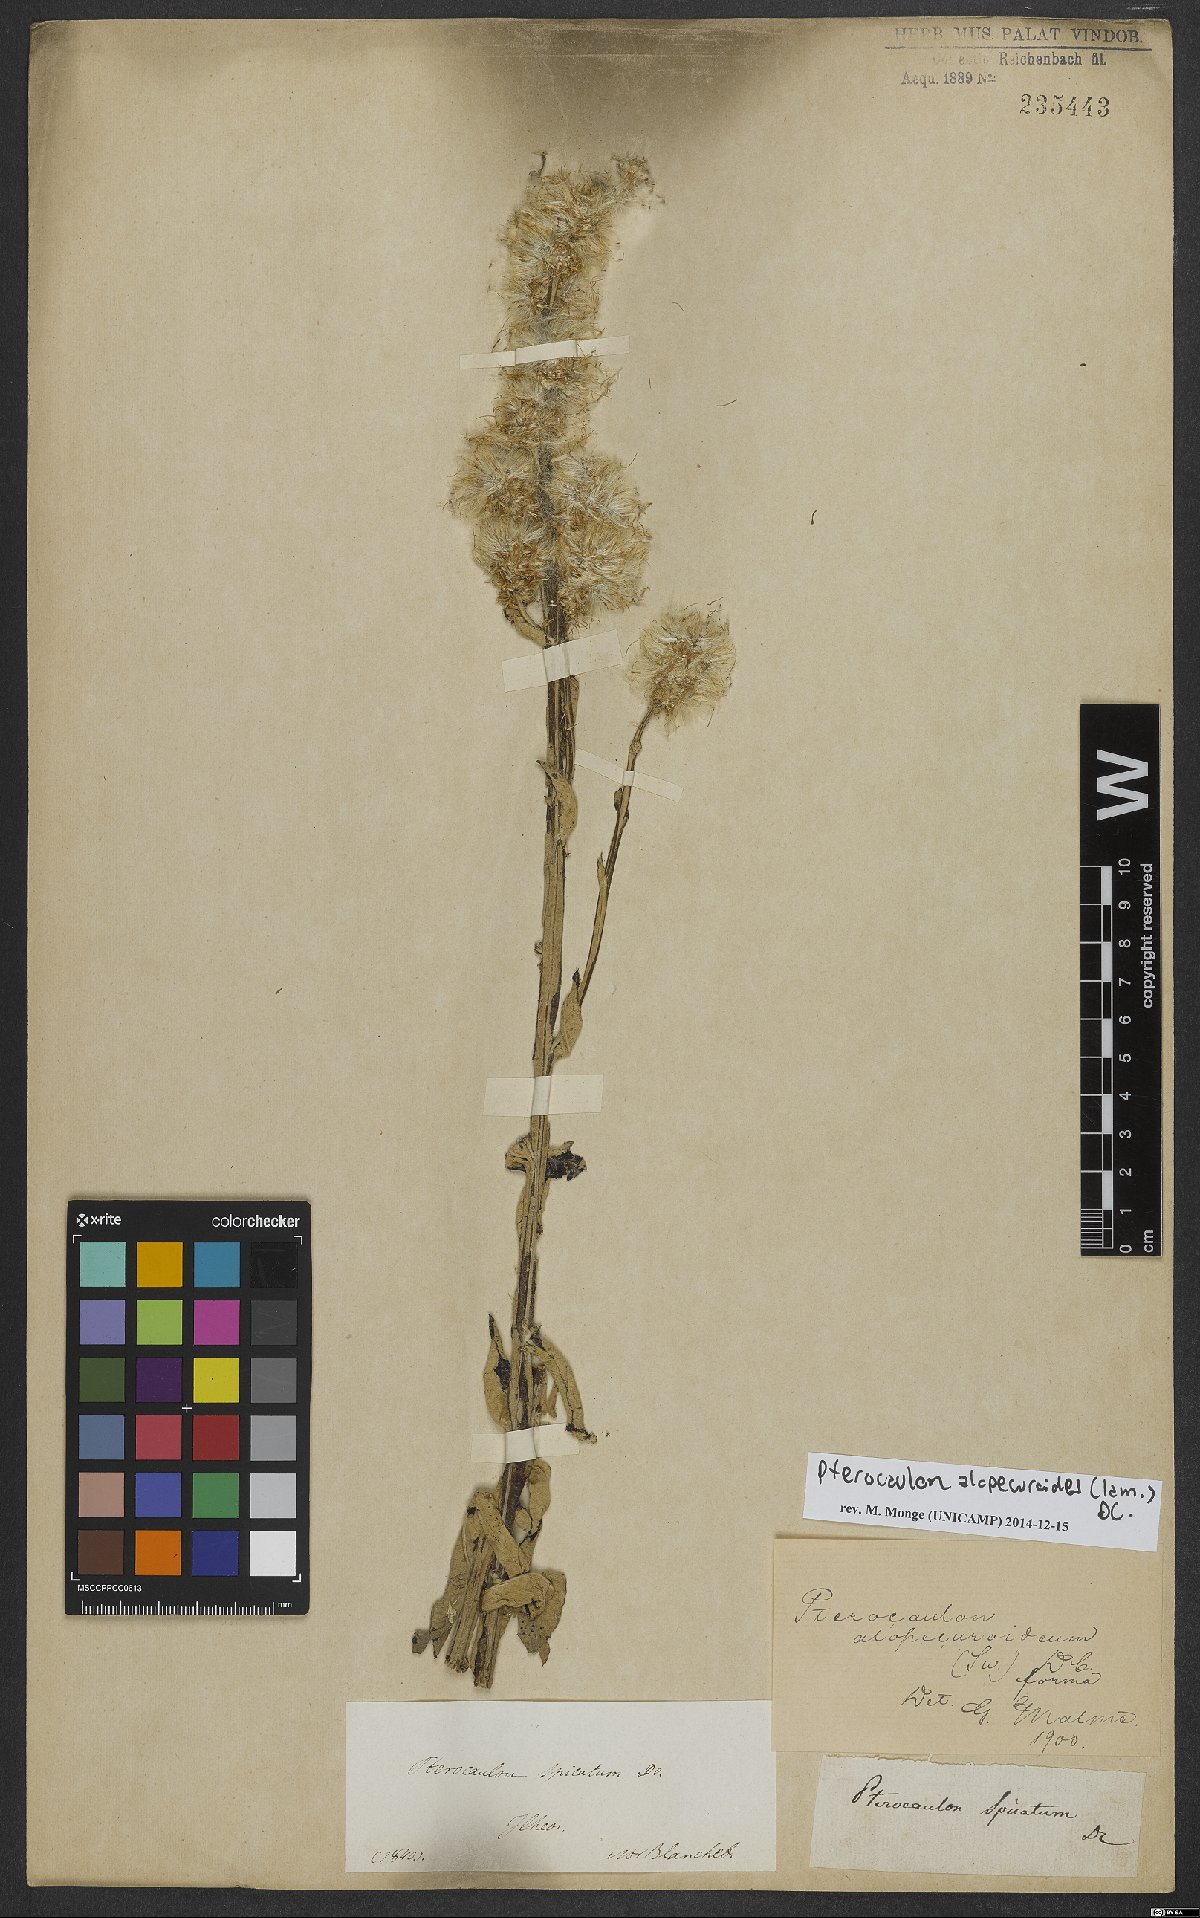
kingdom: Plantae
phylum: Tracheophyta
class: Magnoliopsida
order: Asterales
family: Asteraceae
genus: Pterocaulon
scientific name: Pterocaulon alopecuroides
